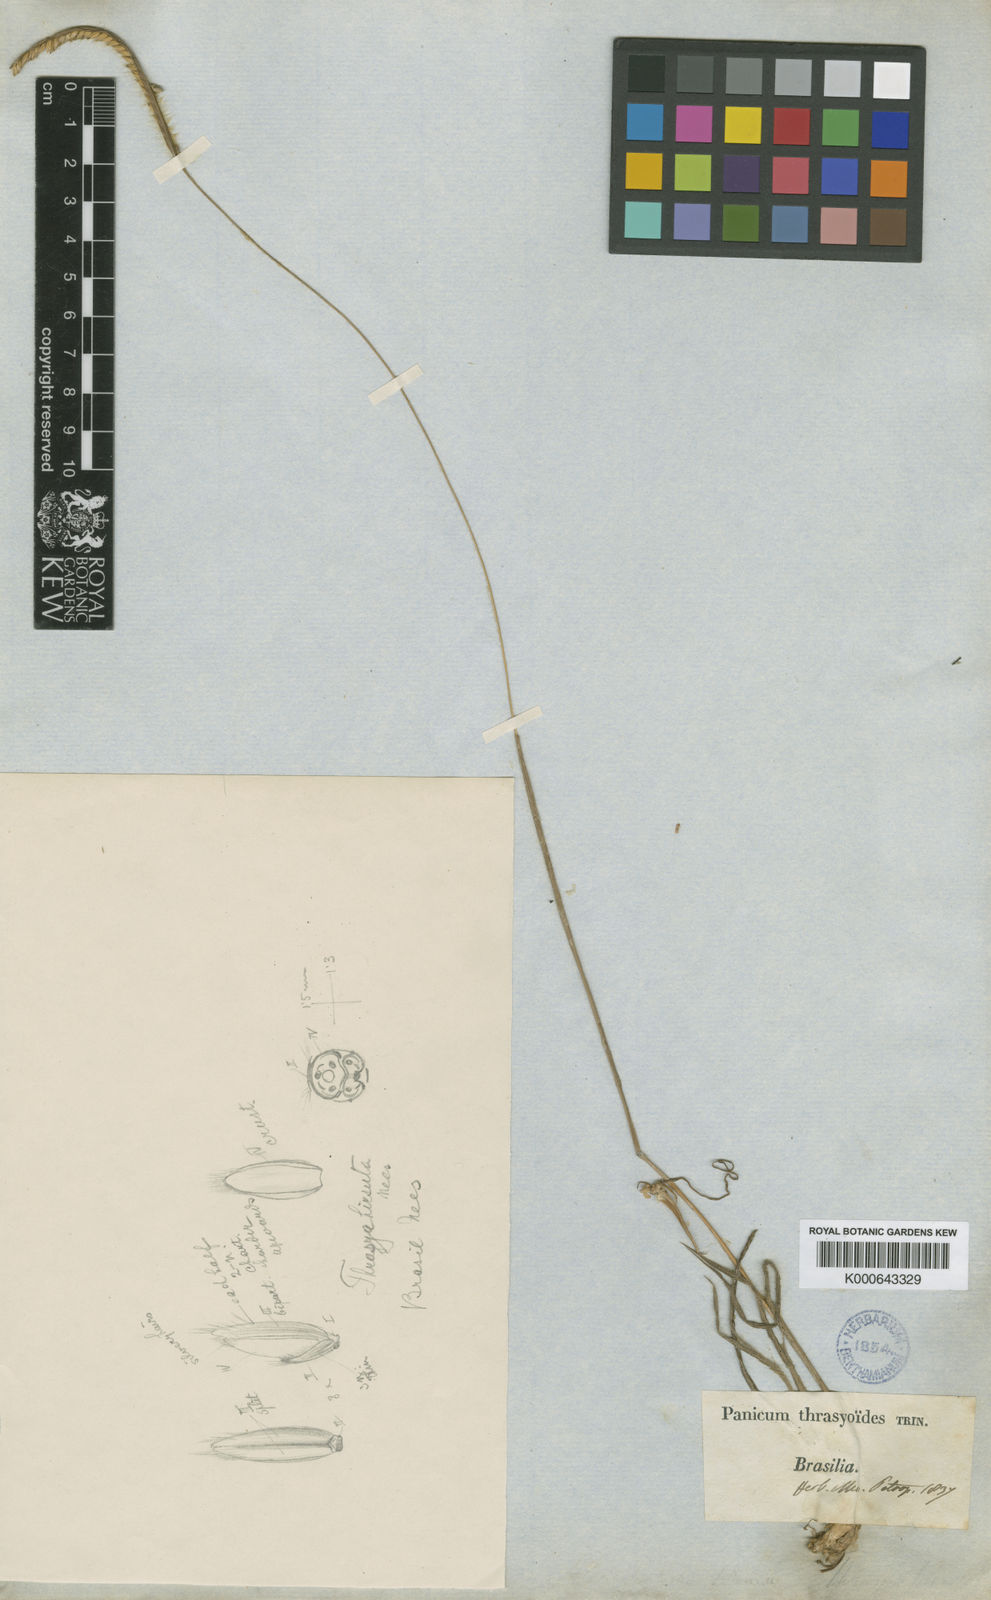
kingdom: Plantae
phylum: Tracheophyta
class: Liliopsida
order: Poales
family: Poaceae
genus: Paspalum
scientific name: Paspalum thrasyoides
